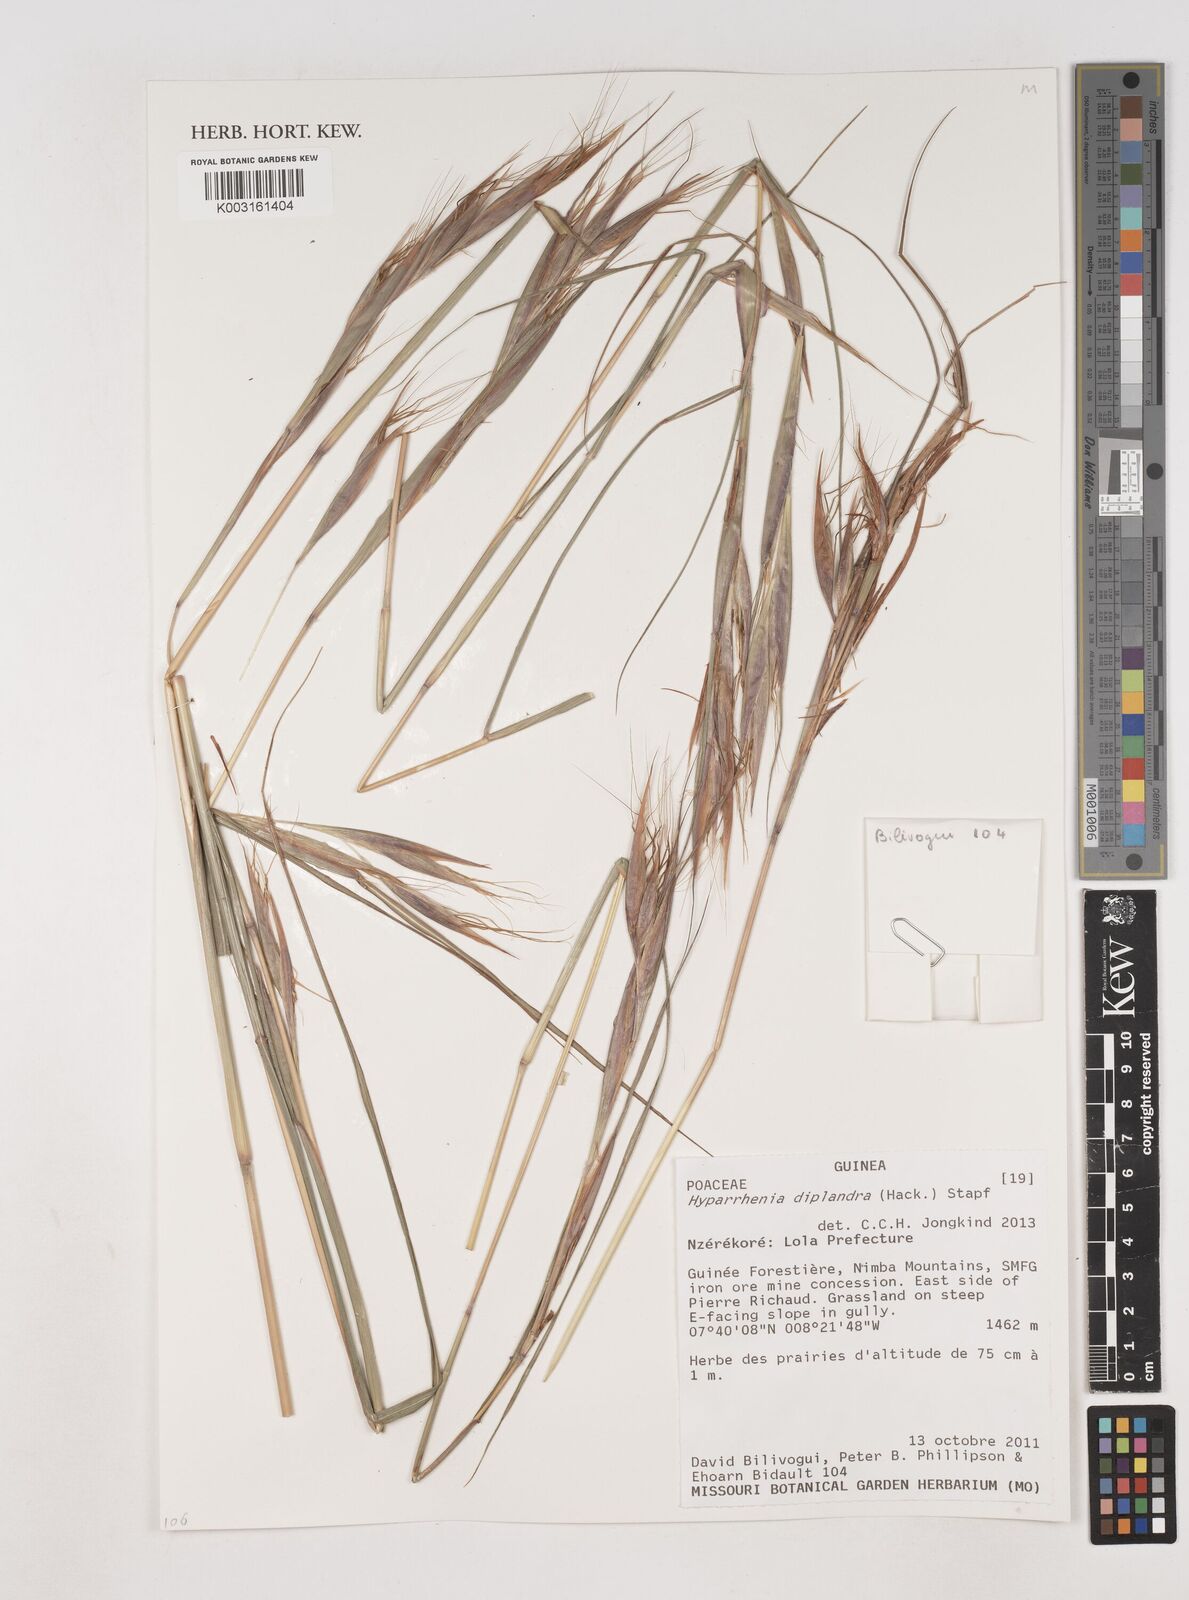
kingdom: Plantae
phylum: Tracheophyta
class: Liliopsida
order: Poales
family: Poaceae
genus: Hyparrhenia
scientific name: Hyparrhenia diplandra
